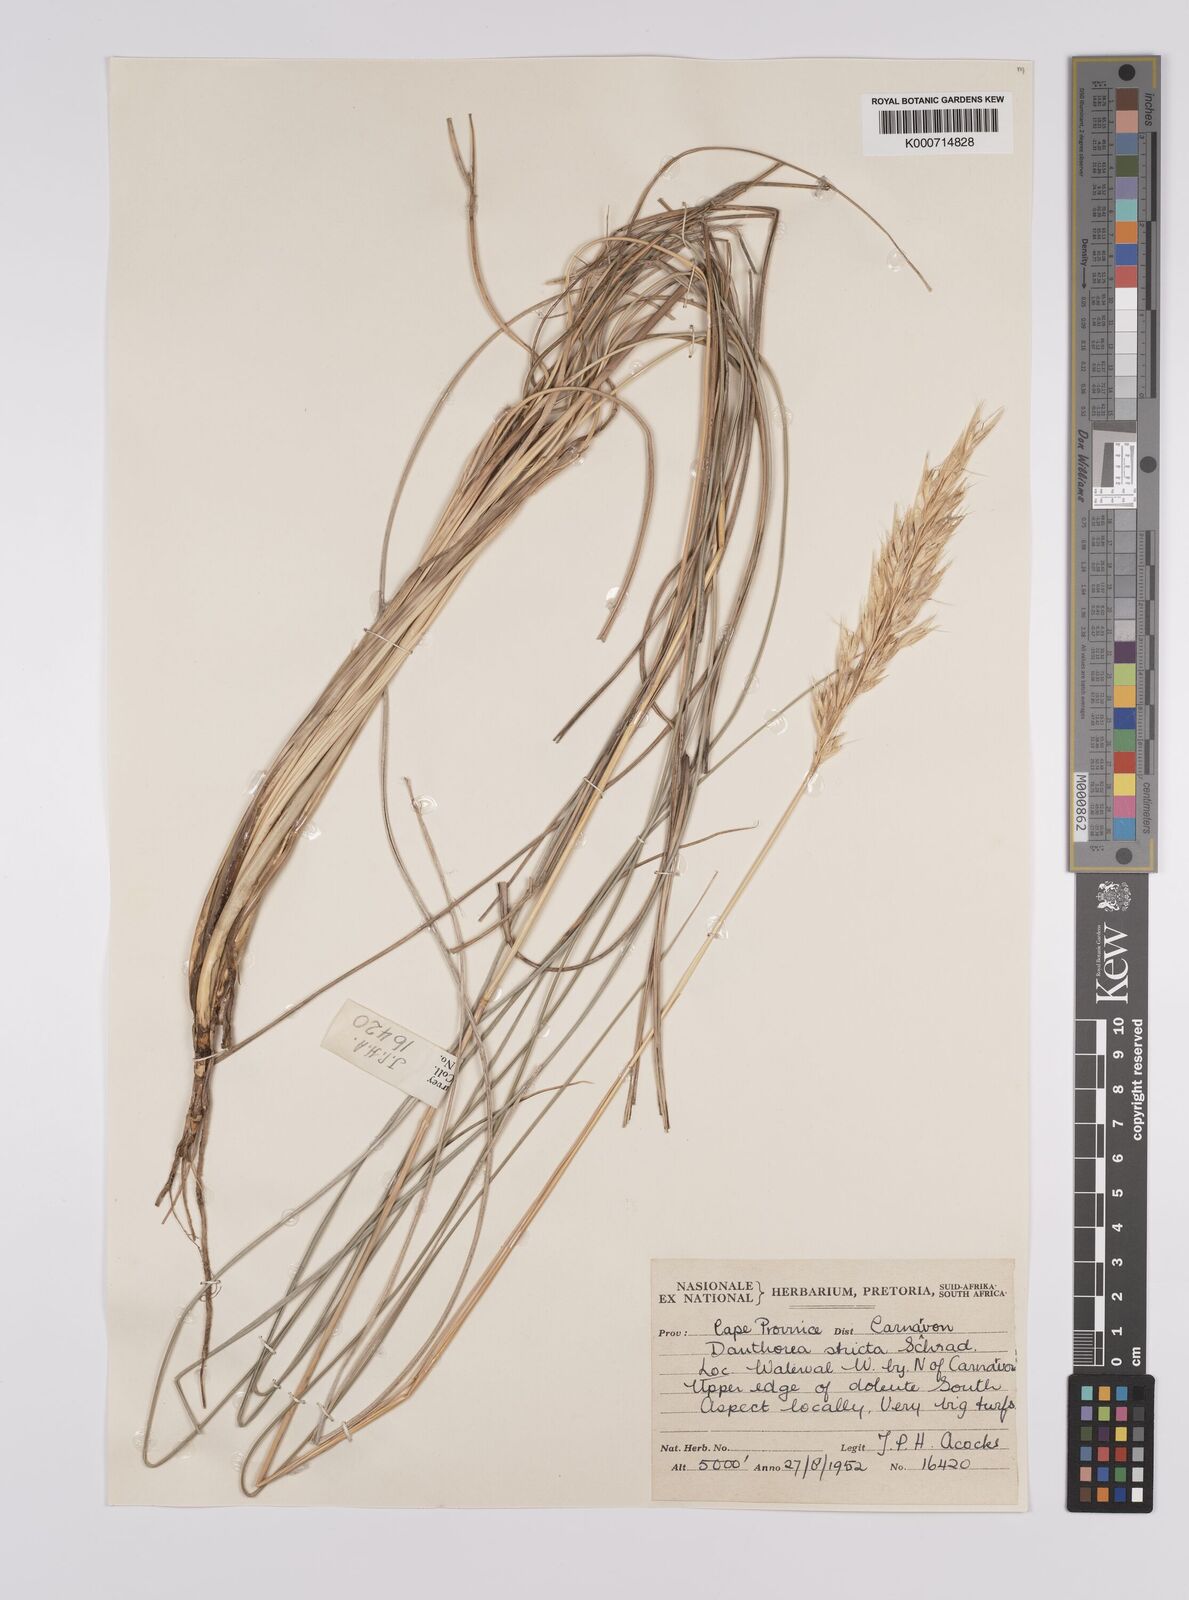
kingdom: Plantae
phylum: Tracheophyta
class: Liliopsida
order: Poales
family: Poaceae
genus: Rytidosperma
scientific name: Rytidosperma
